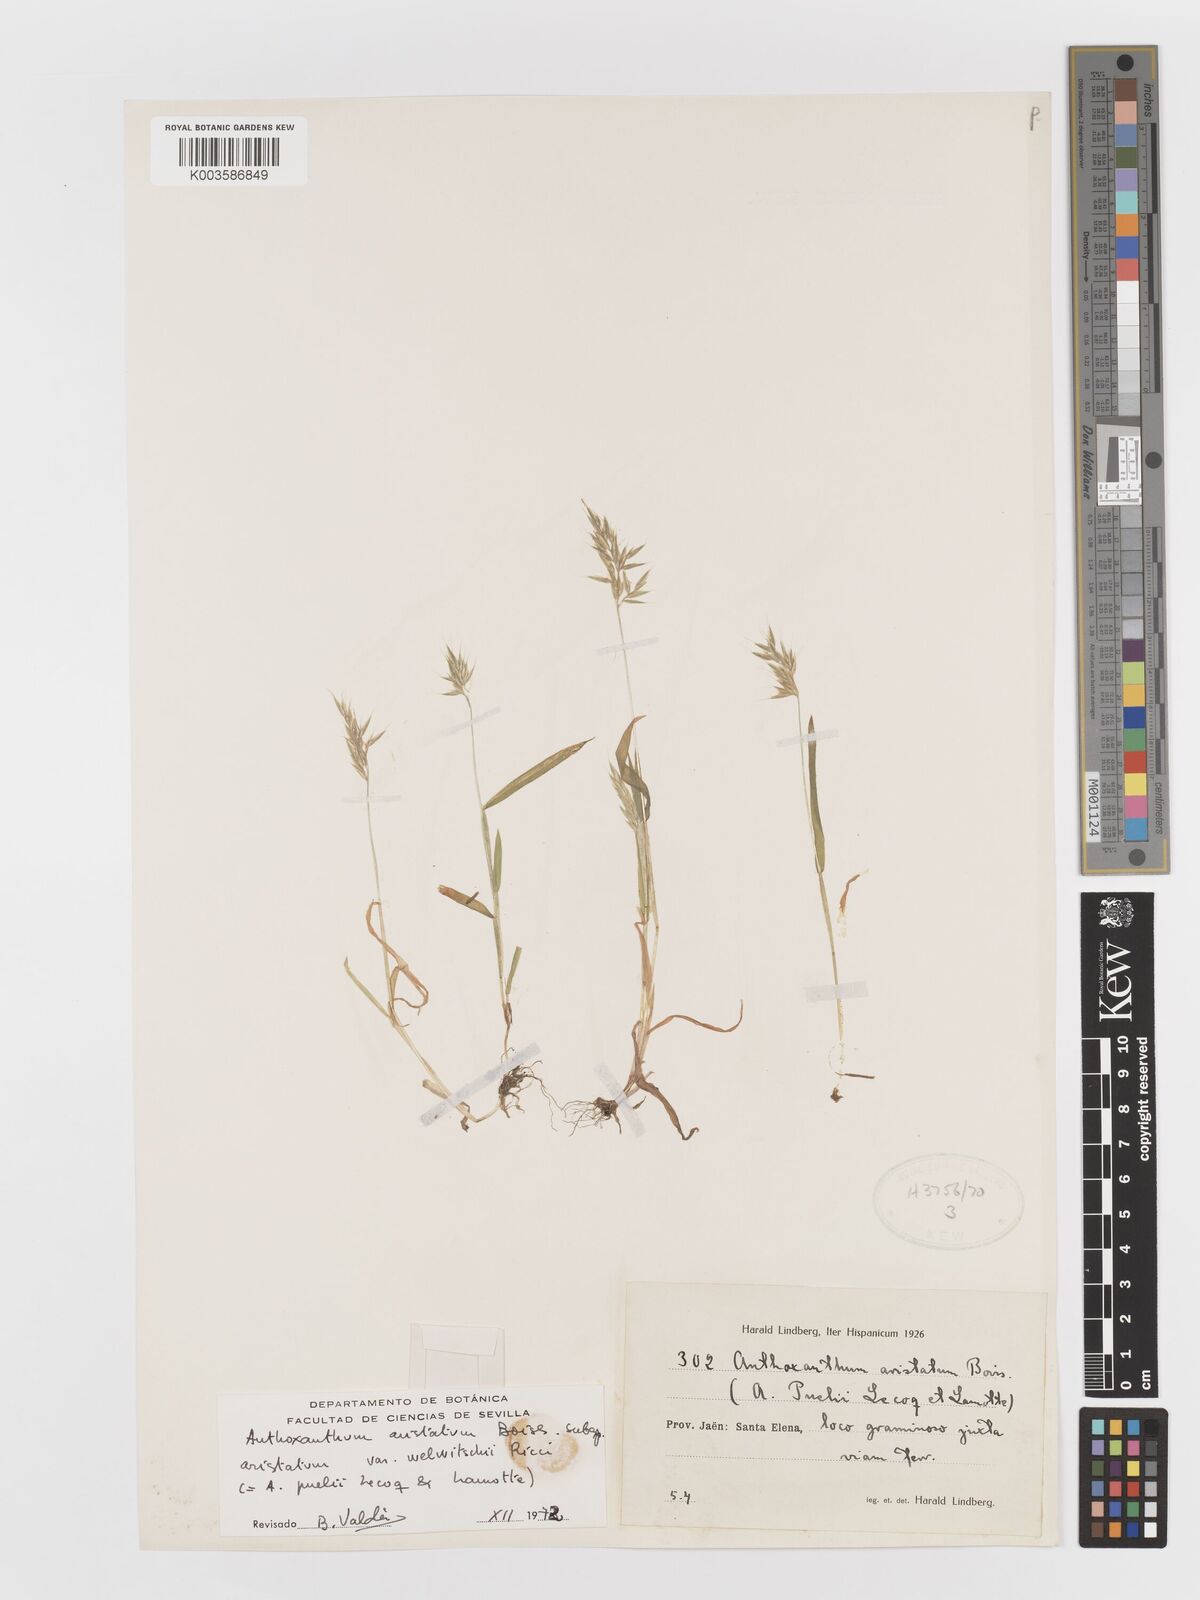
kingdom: Plantae
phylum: Tracheophyta
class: Liliopsida
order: Poales
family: Poaceae
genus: Anthoxanthum
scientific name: Anthoxanthum
